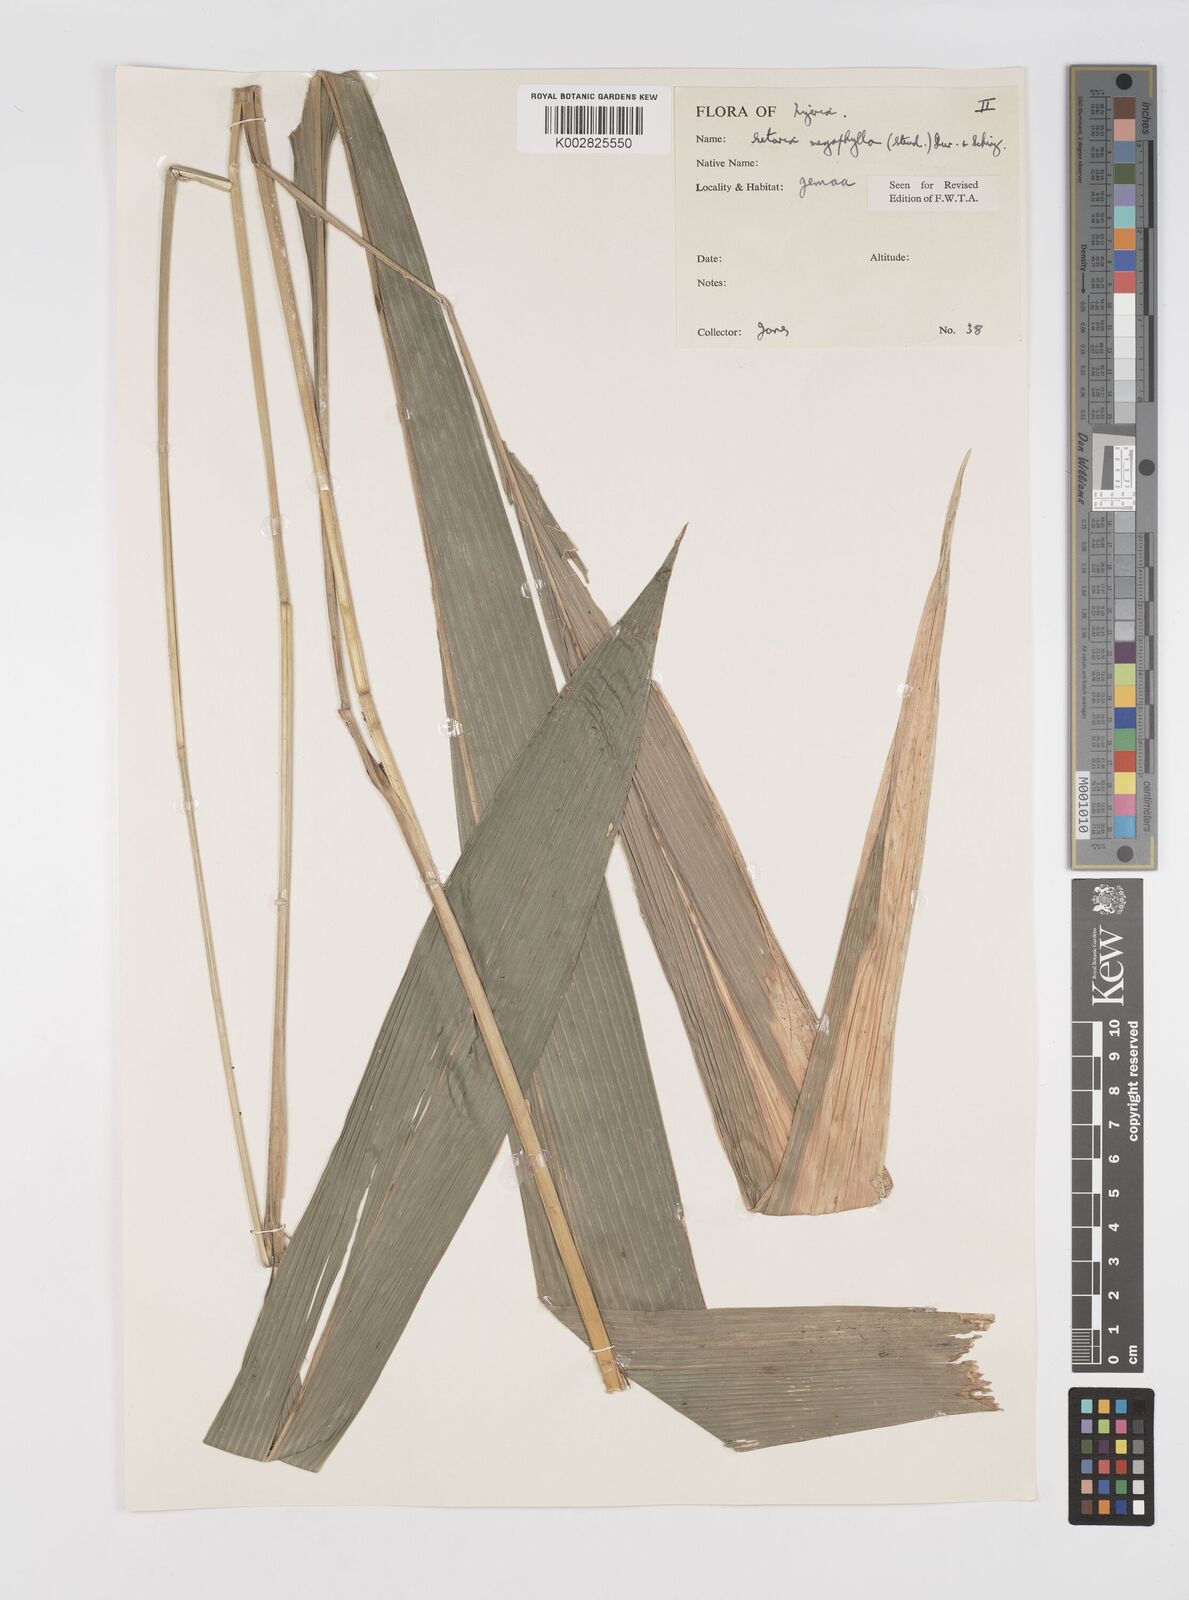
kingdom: Plantae
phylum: Tracheophyta
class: Liliopsida
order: Poales
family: Poaceae
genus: Setaria
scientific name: Setaria megaphylla
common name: Bigleaf bristlegrass
